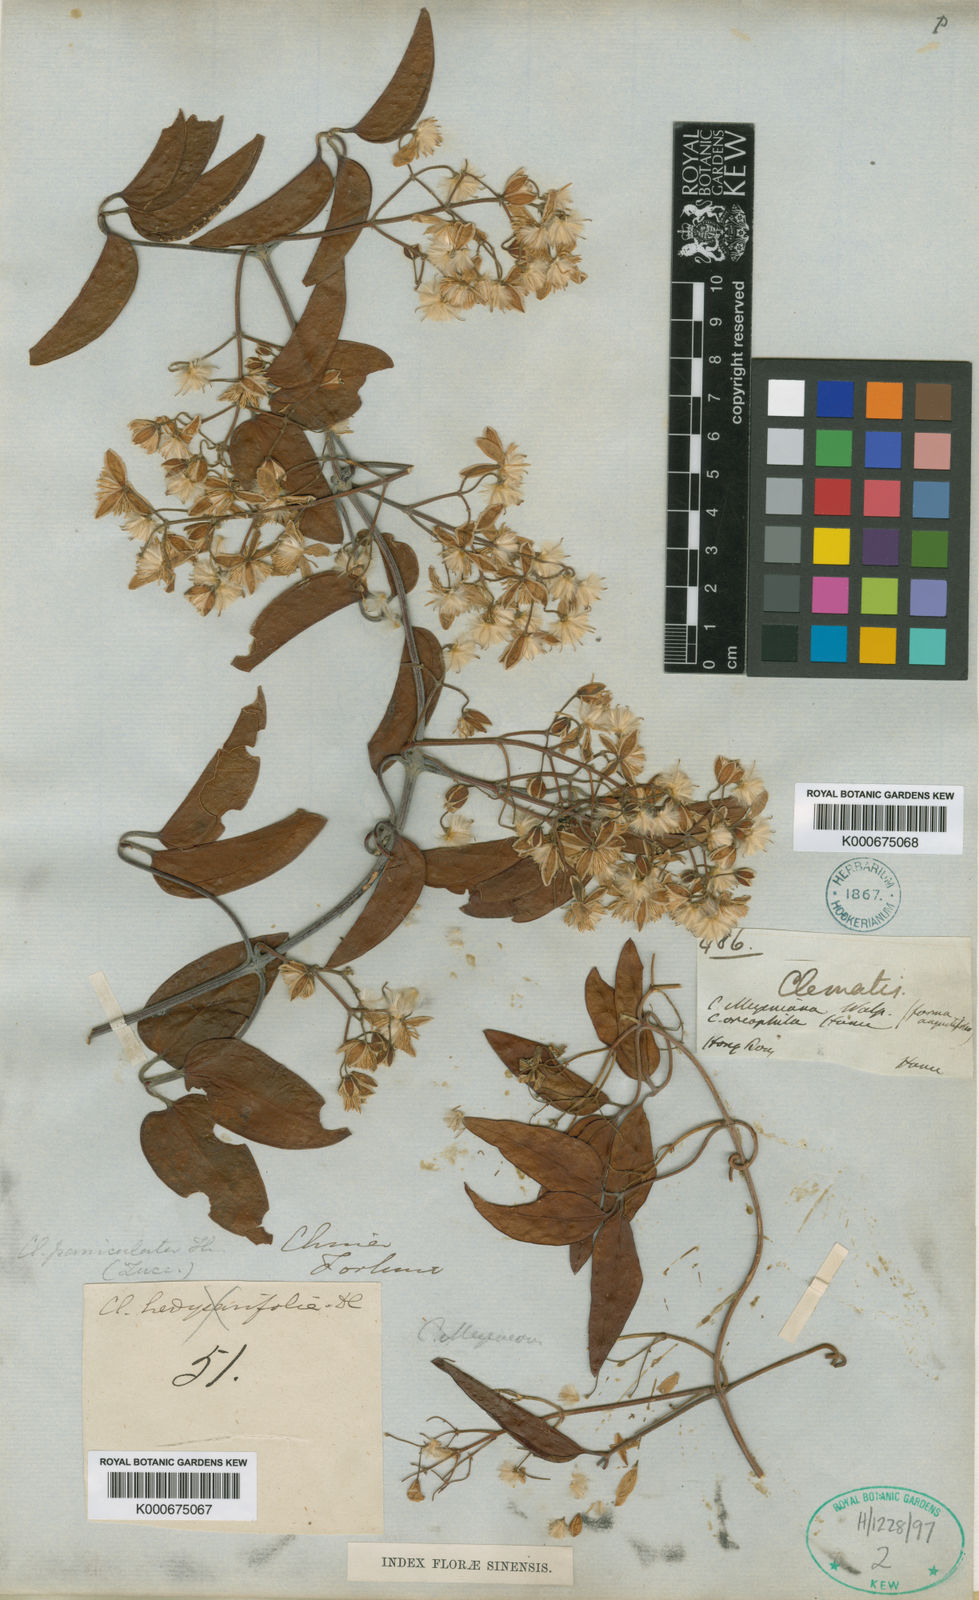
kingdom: Plantae
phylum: Tracheophyta
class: Magnoliopsida
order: Ranunculales
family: Ranunculaceae
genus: Clematis
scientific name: Clematis meyeniana
